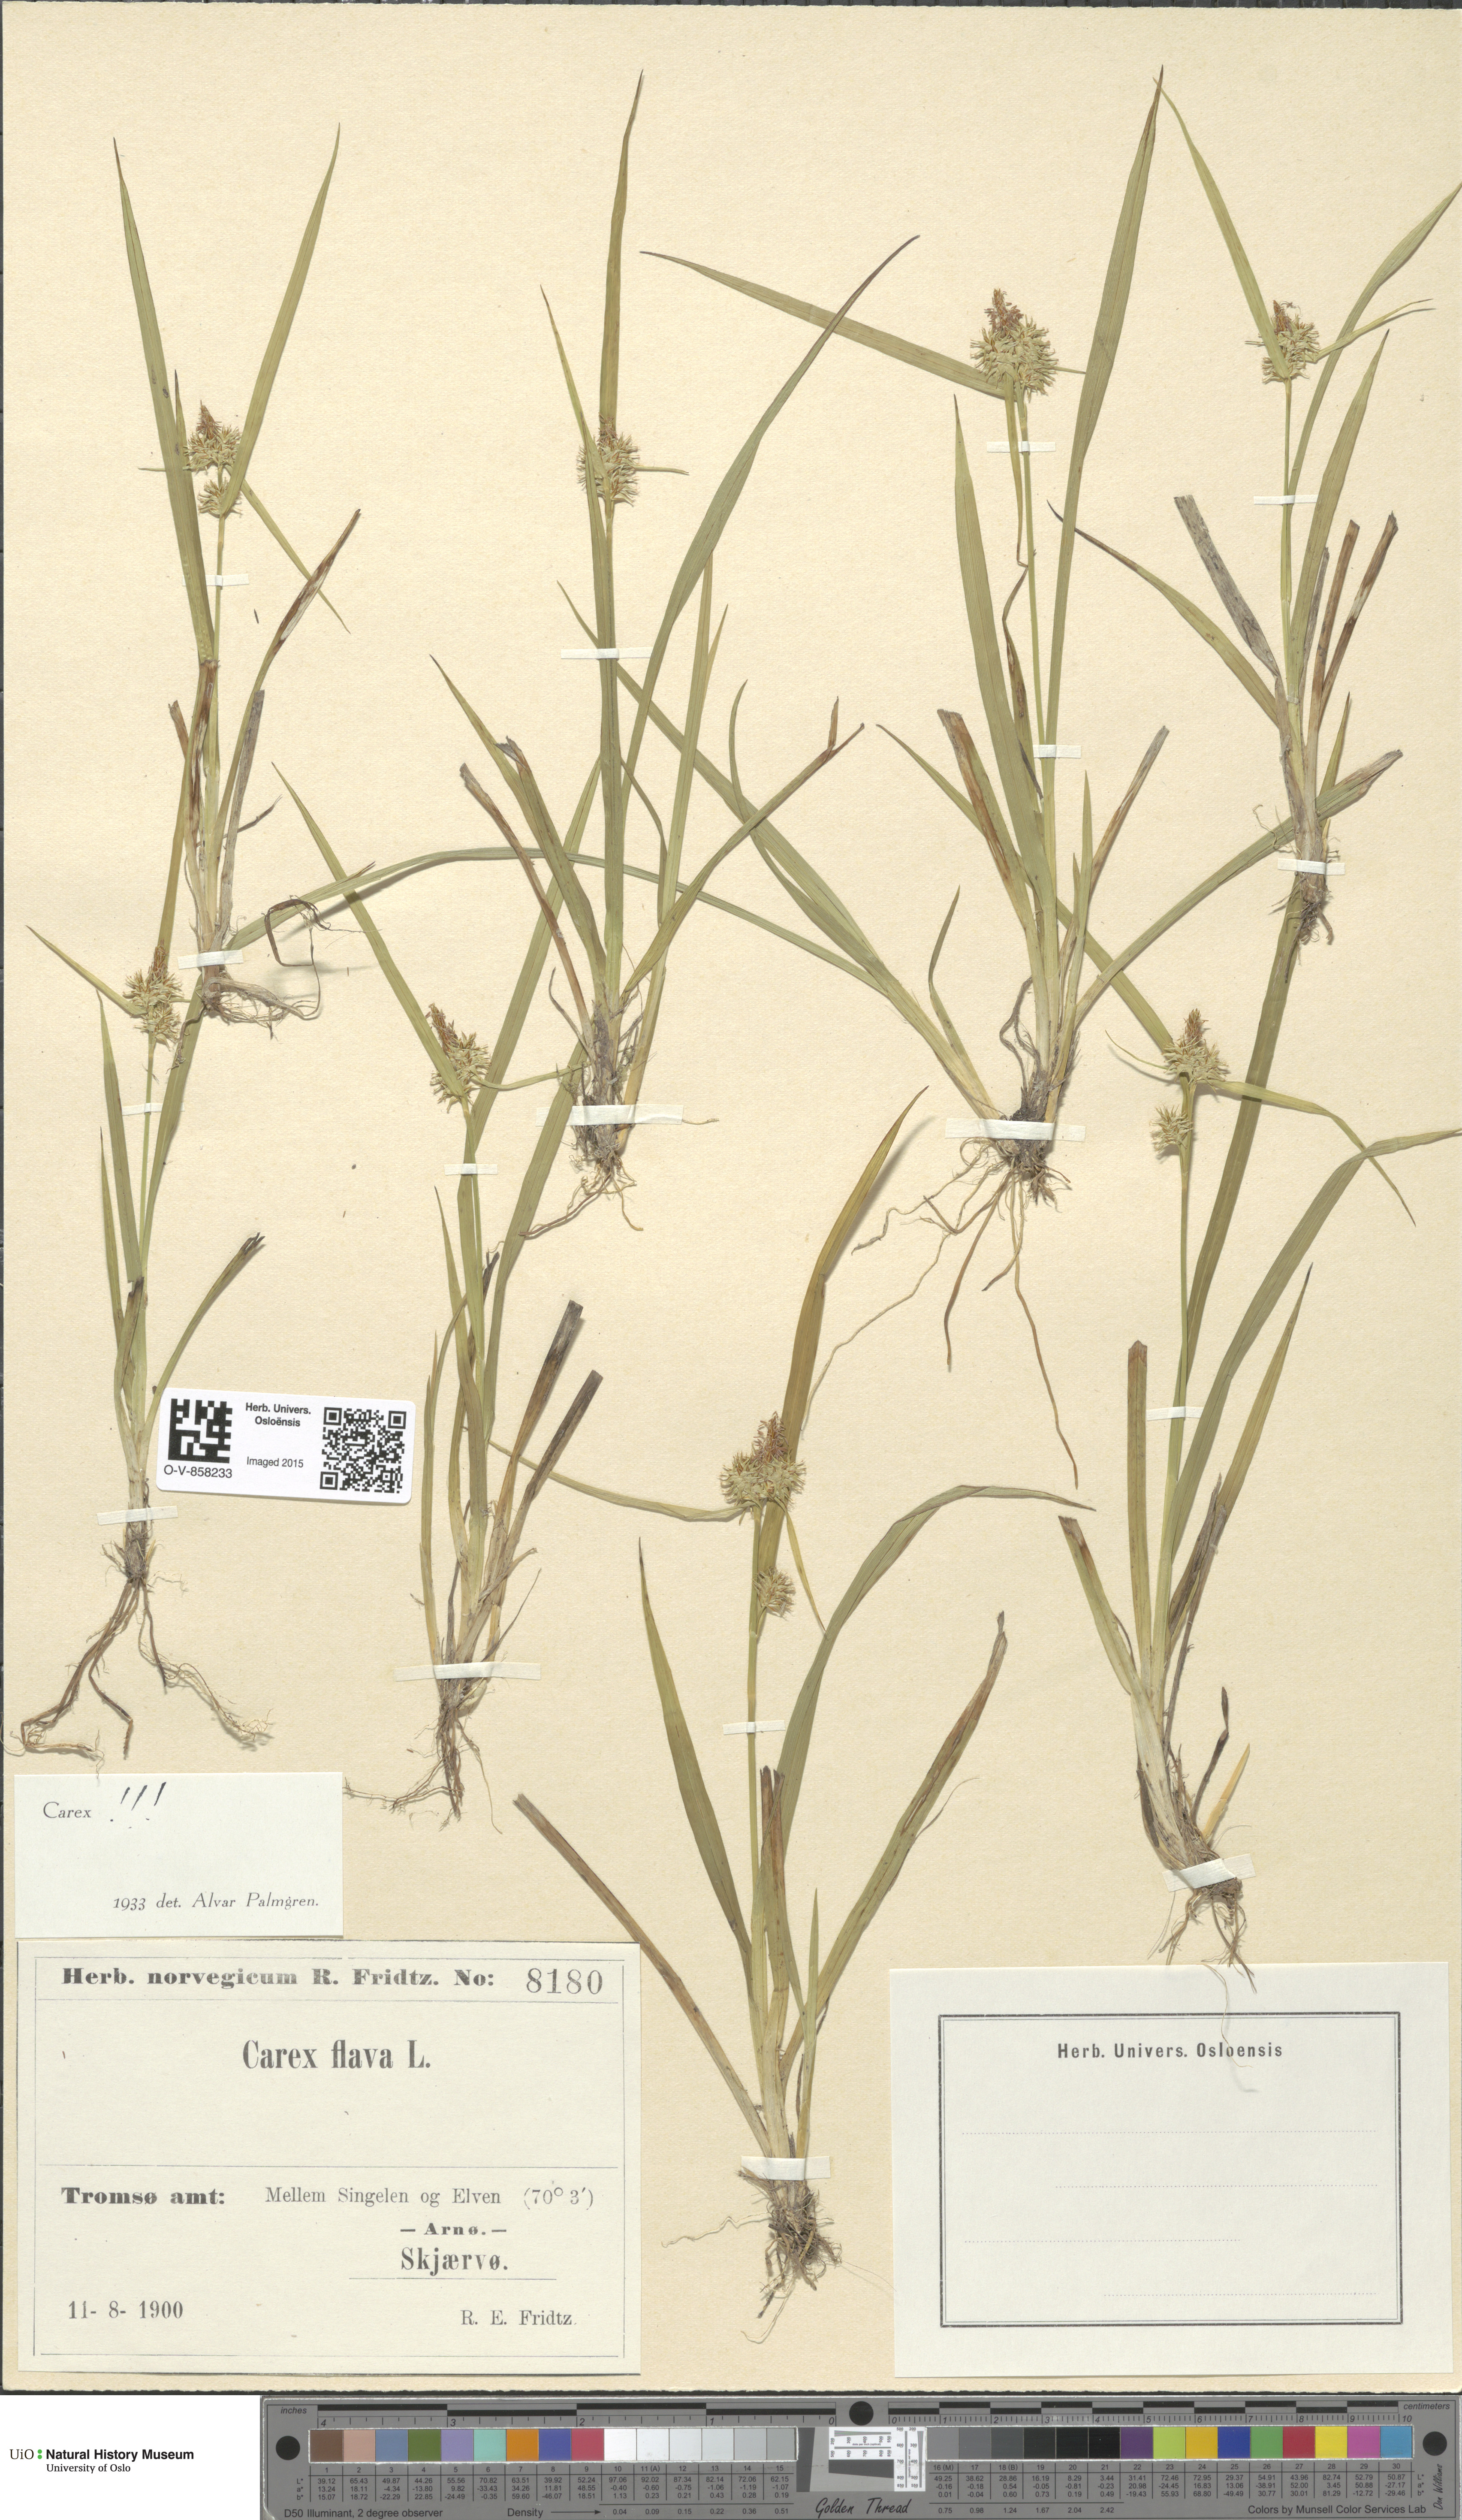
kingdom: Plantae
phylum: Tracheophyta
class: Liliopsida
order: Poales
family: Cyperaceae
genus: Carex
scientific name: Carex flava
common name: Large yellow-sedge
